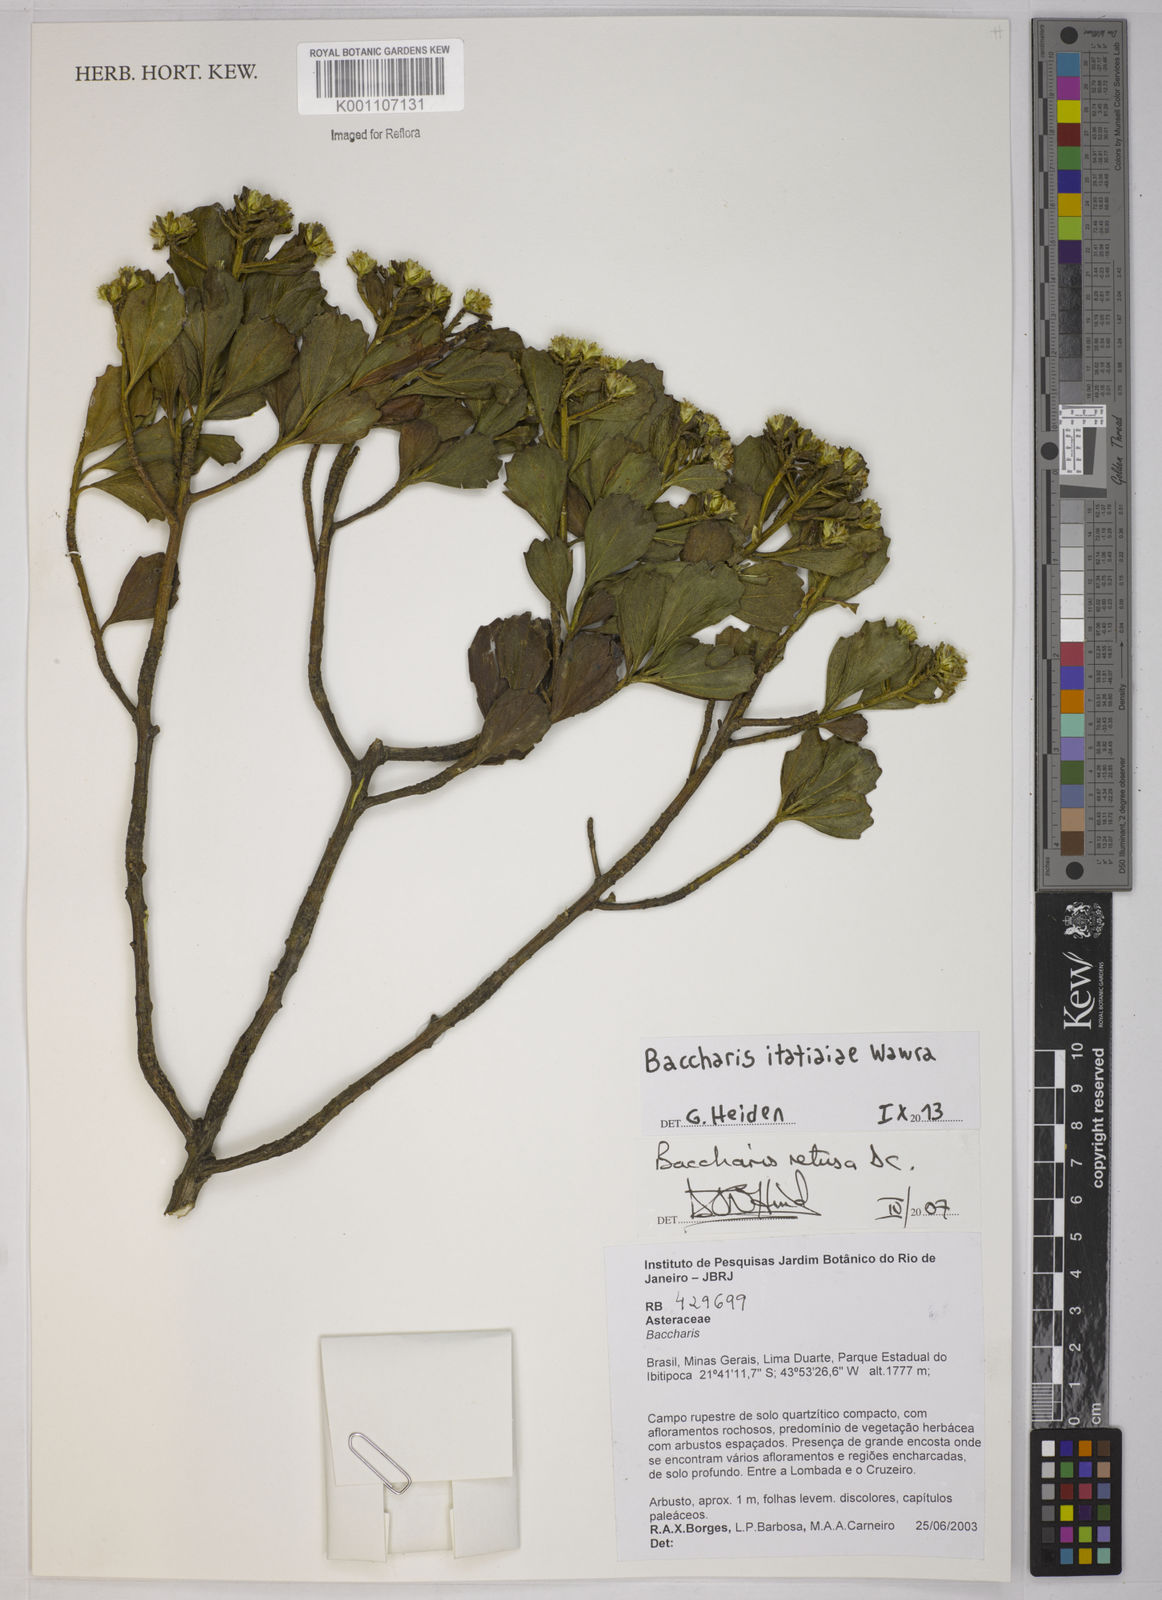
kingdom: Plantae
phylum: Tracheophyta
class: Magnoliopsida
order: Asterales
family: Asteraceae
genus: Baccharis
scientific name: Baccharis itatiaiae
